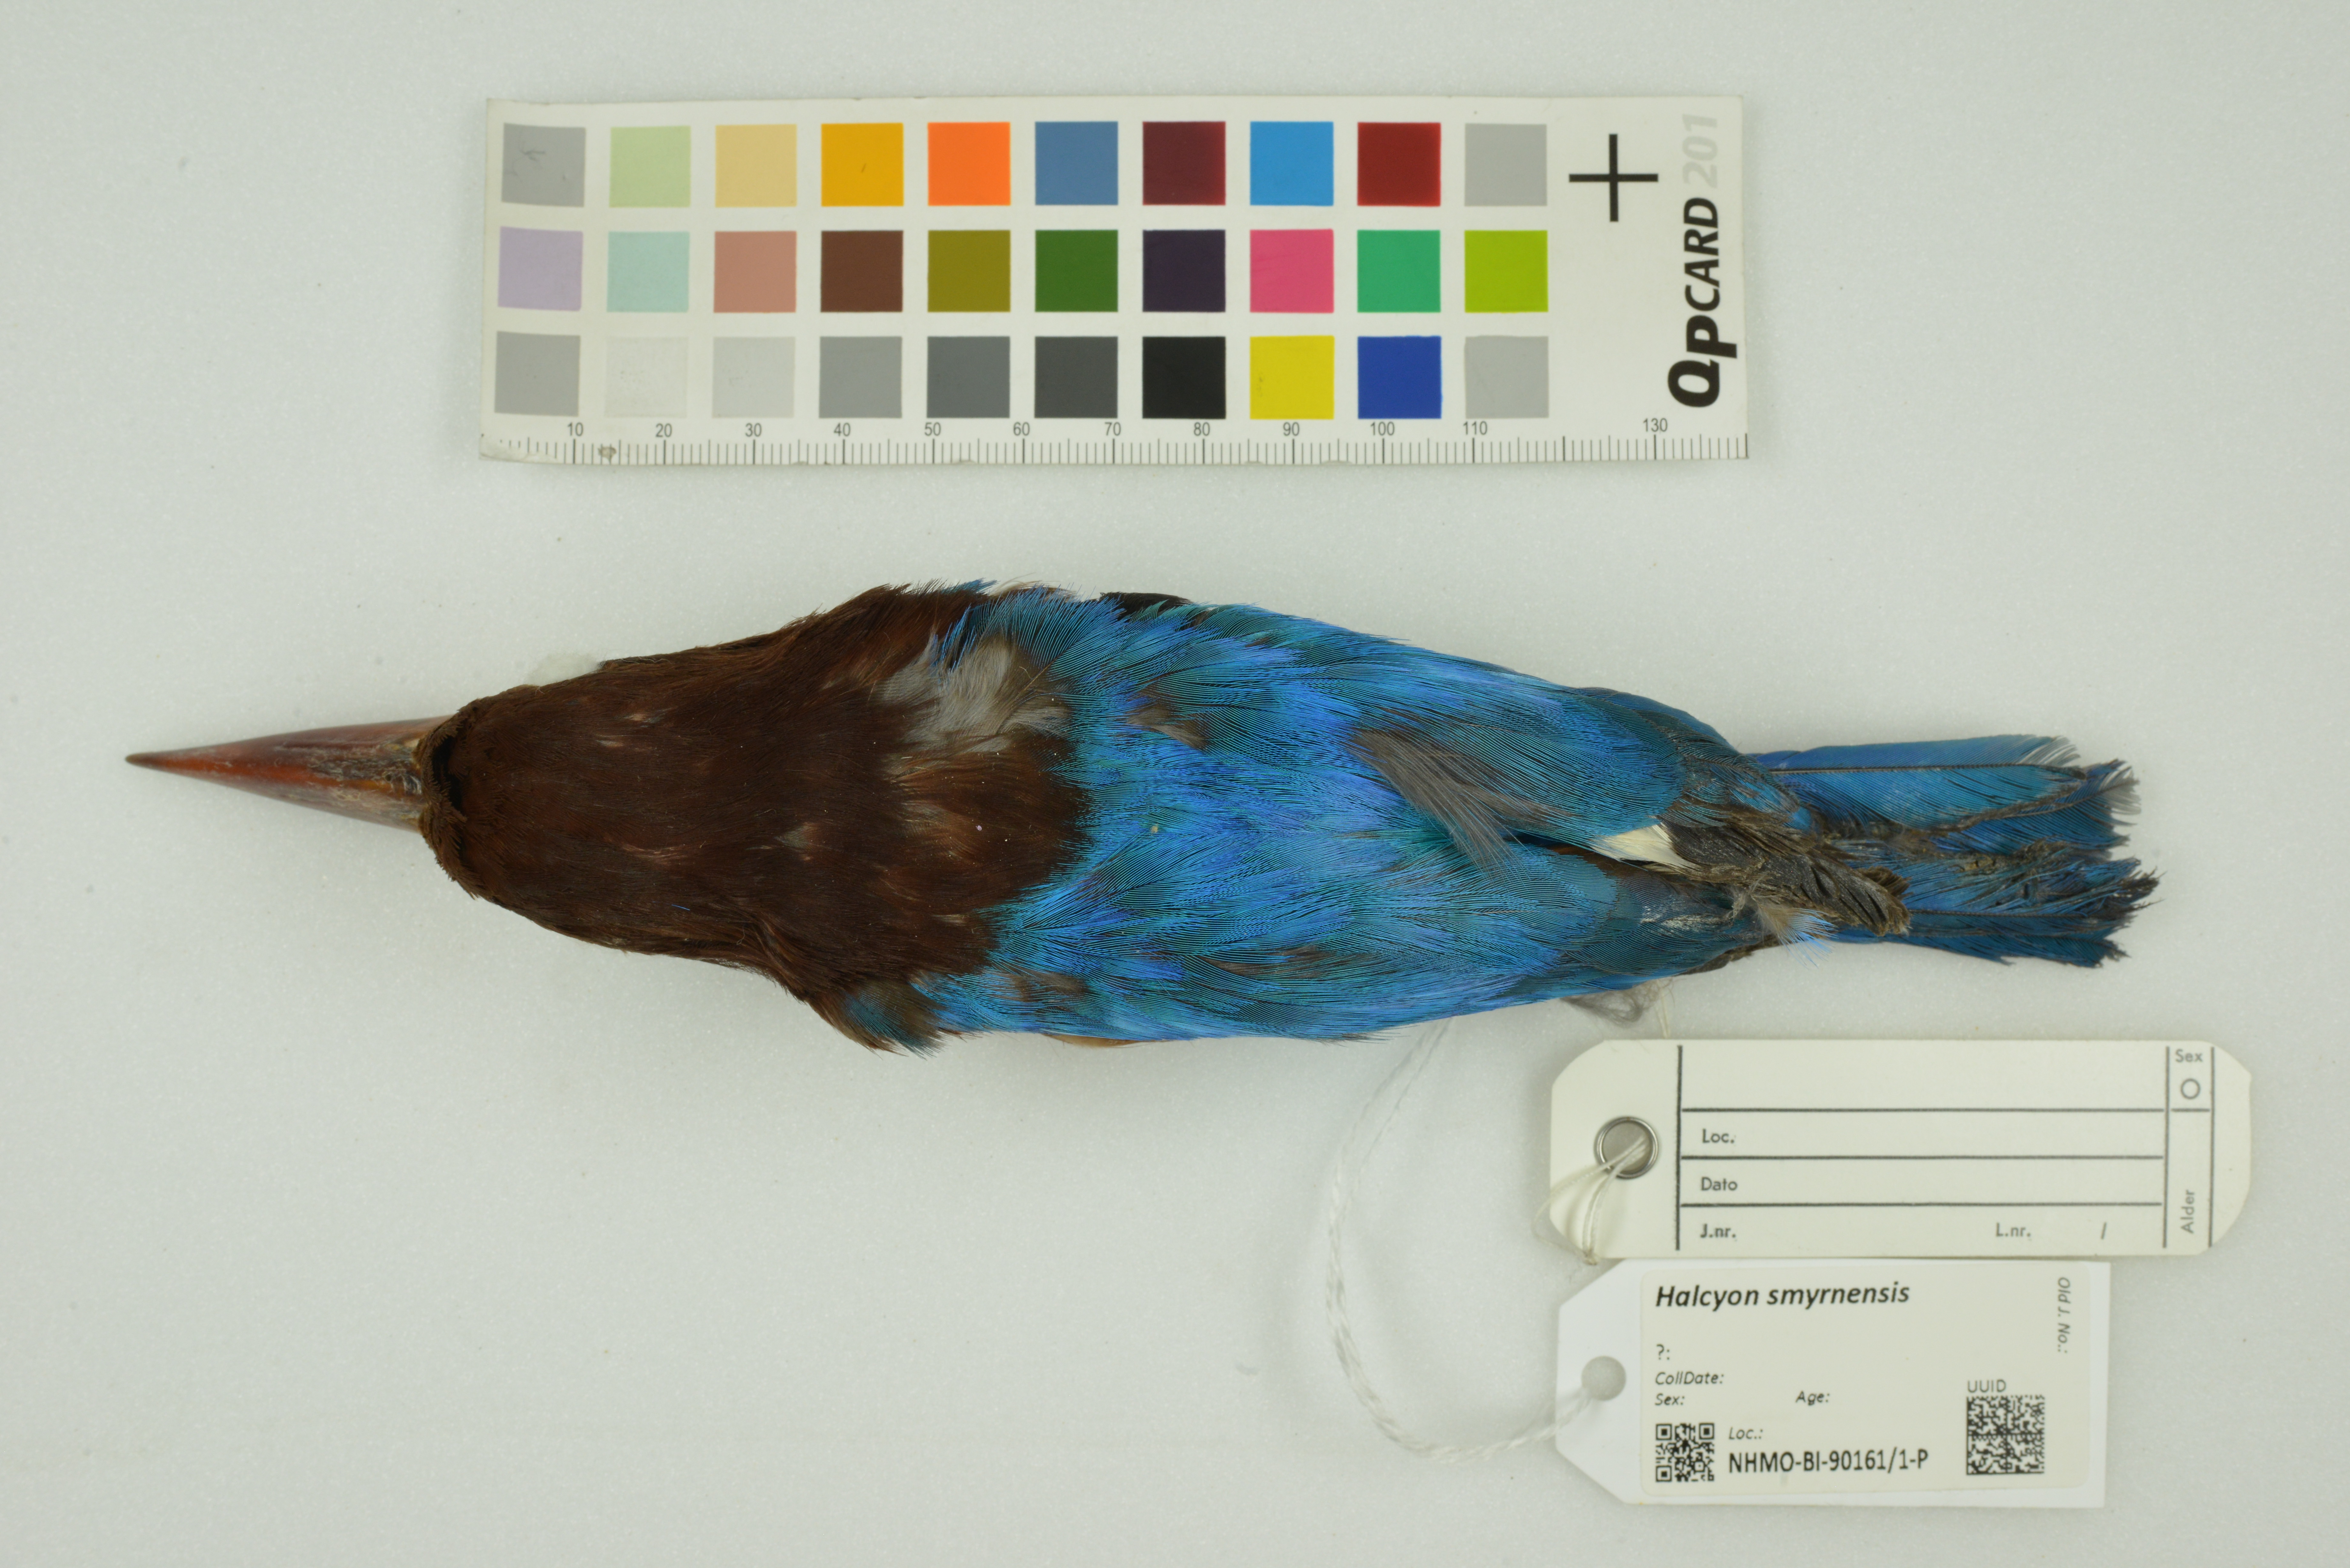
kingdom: Animalia
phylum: Chordata
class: Aves
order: Coraciiformes
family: Alcedinidae
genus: Halcyon
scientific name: Halcyon smyrnensis
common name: White-throated kingfisher
